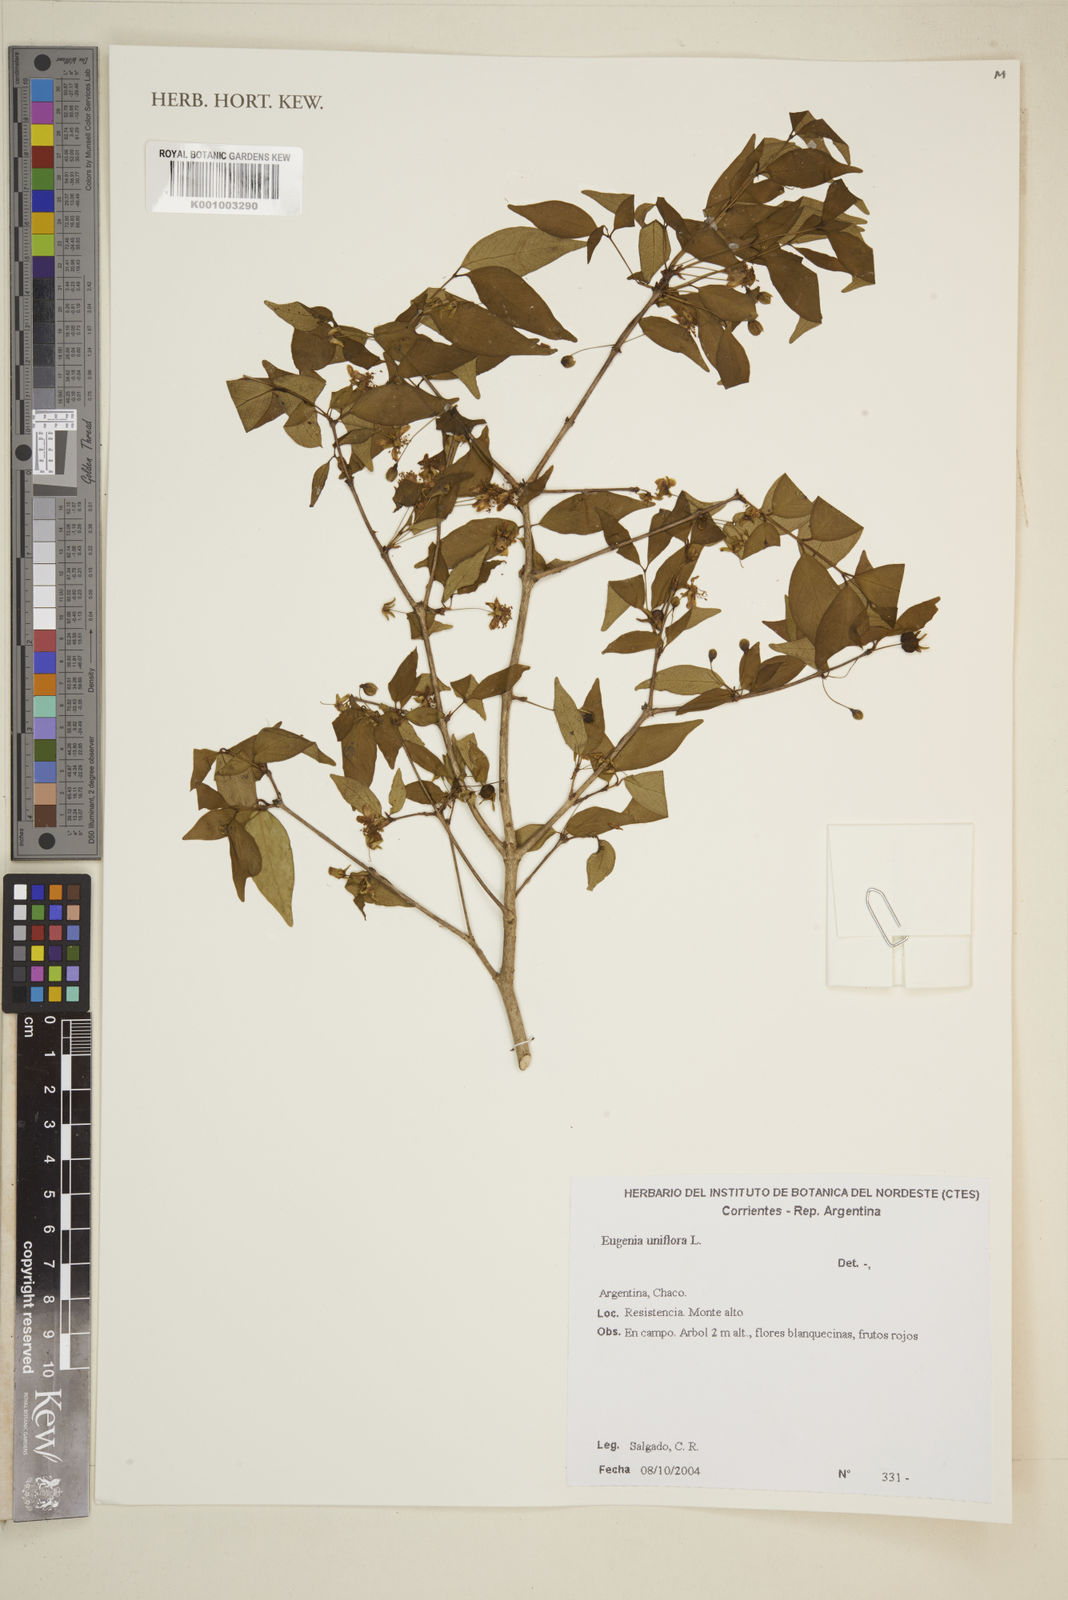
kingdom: Plantae
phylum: Tracheophyta
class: Magnoliopsida
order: Myrtales
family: Myrtaceae
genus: Eugenia
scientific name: Eugenia
